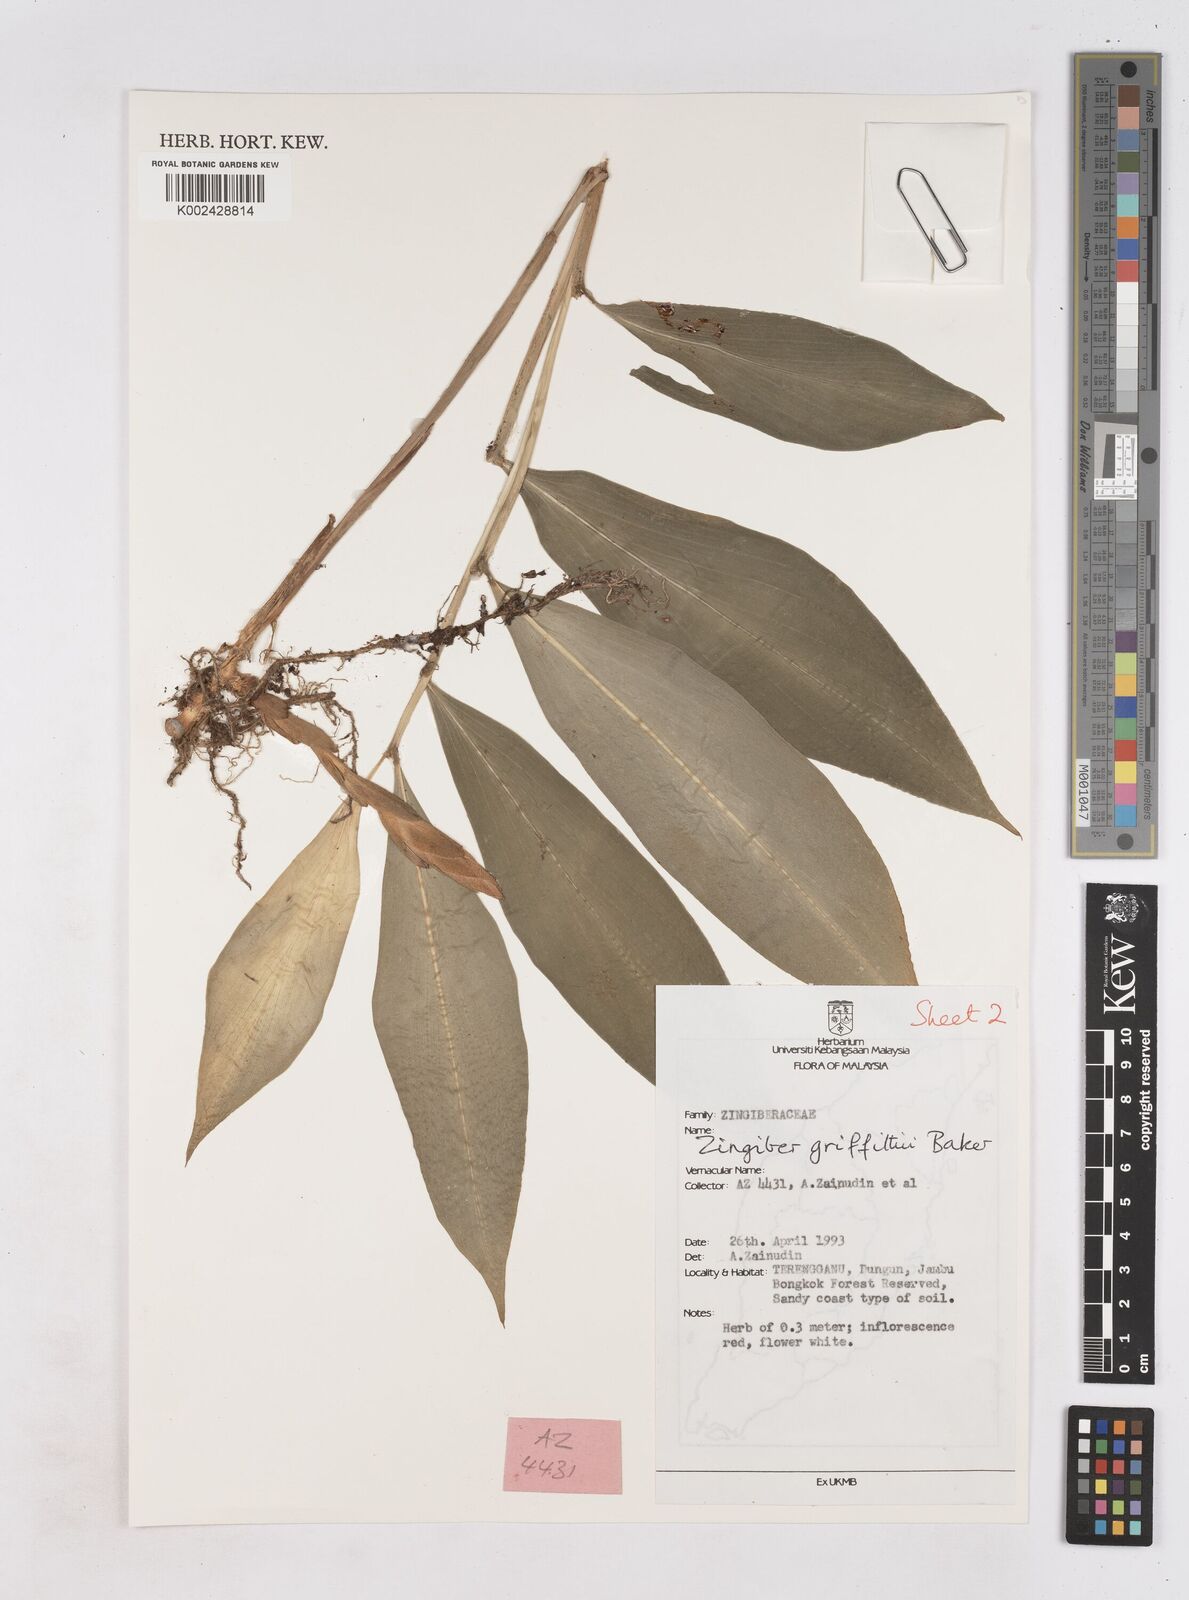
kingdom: Plantae
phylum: Tracheophyta
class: Liliopsida
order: Zingiberales
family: Zingiberaceae
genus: Zingiber
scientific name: Zingiber griffithii
